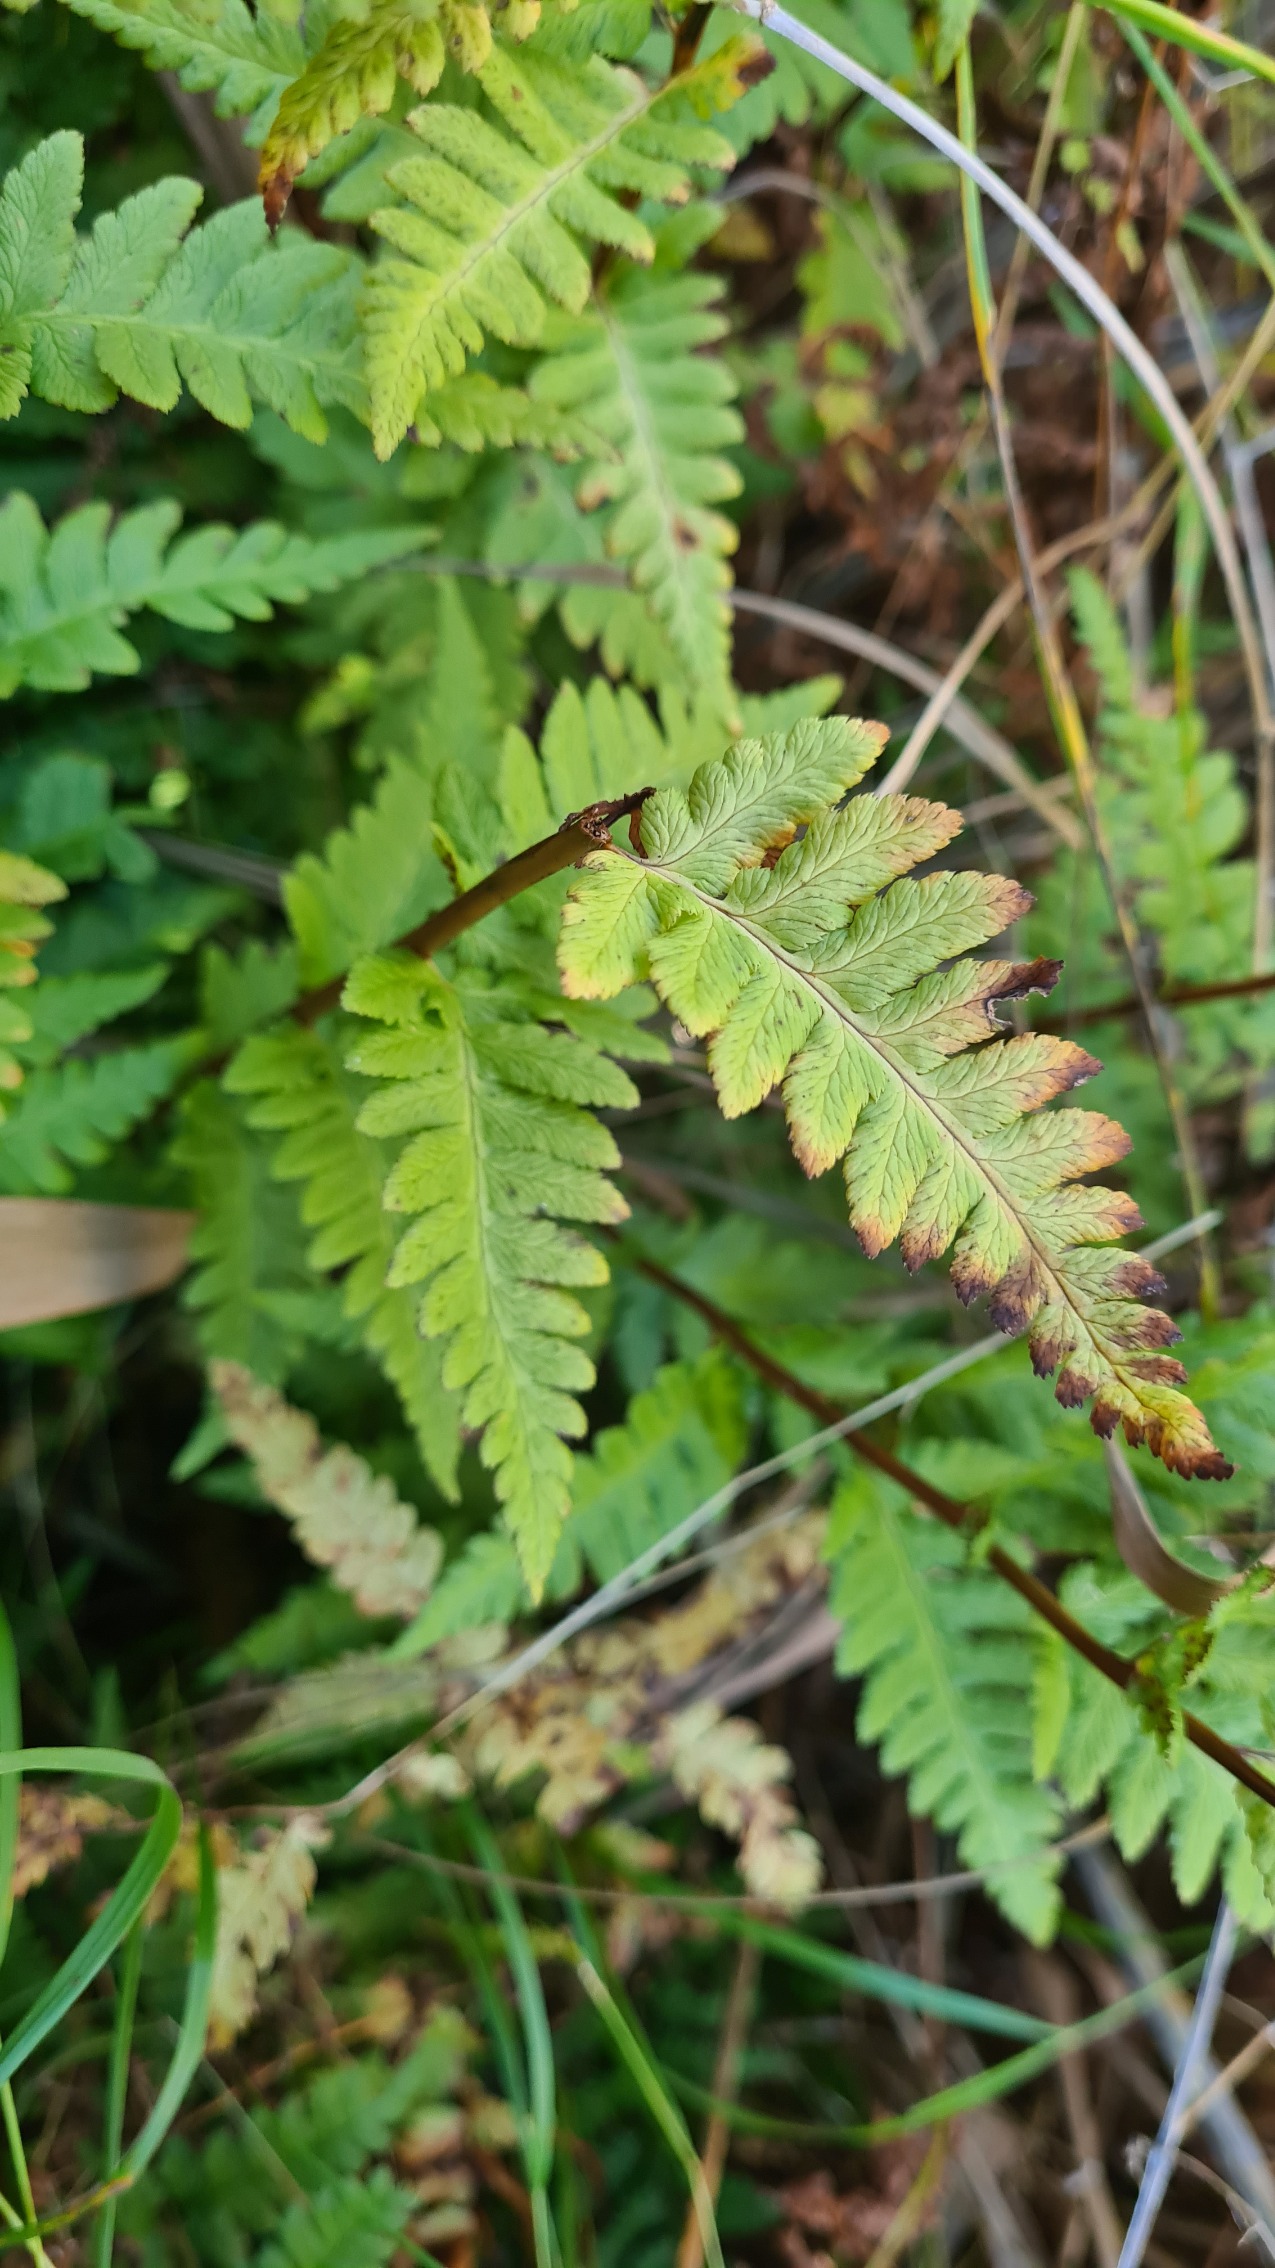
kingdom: Plantae
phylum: Tracheophyta
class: Polypodiopsida
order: Polypodiales
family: Dryopteridaceae
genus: Dryopteris
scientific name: Dryopteris cristata
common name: Butfinnet mangeløv
